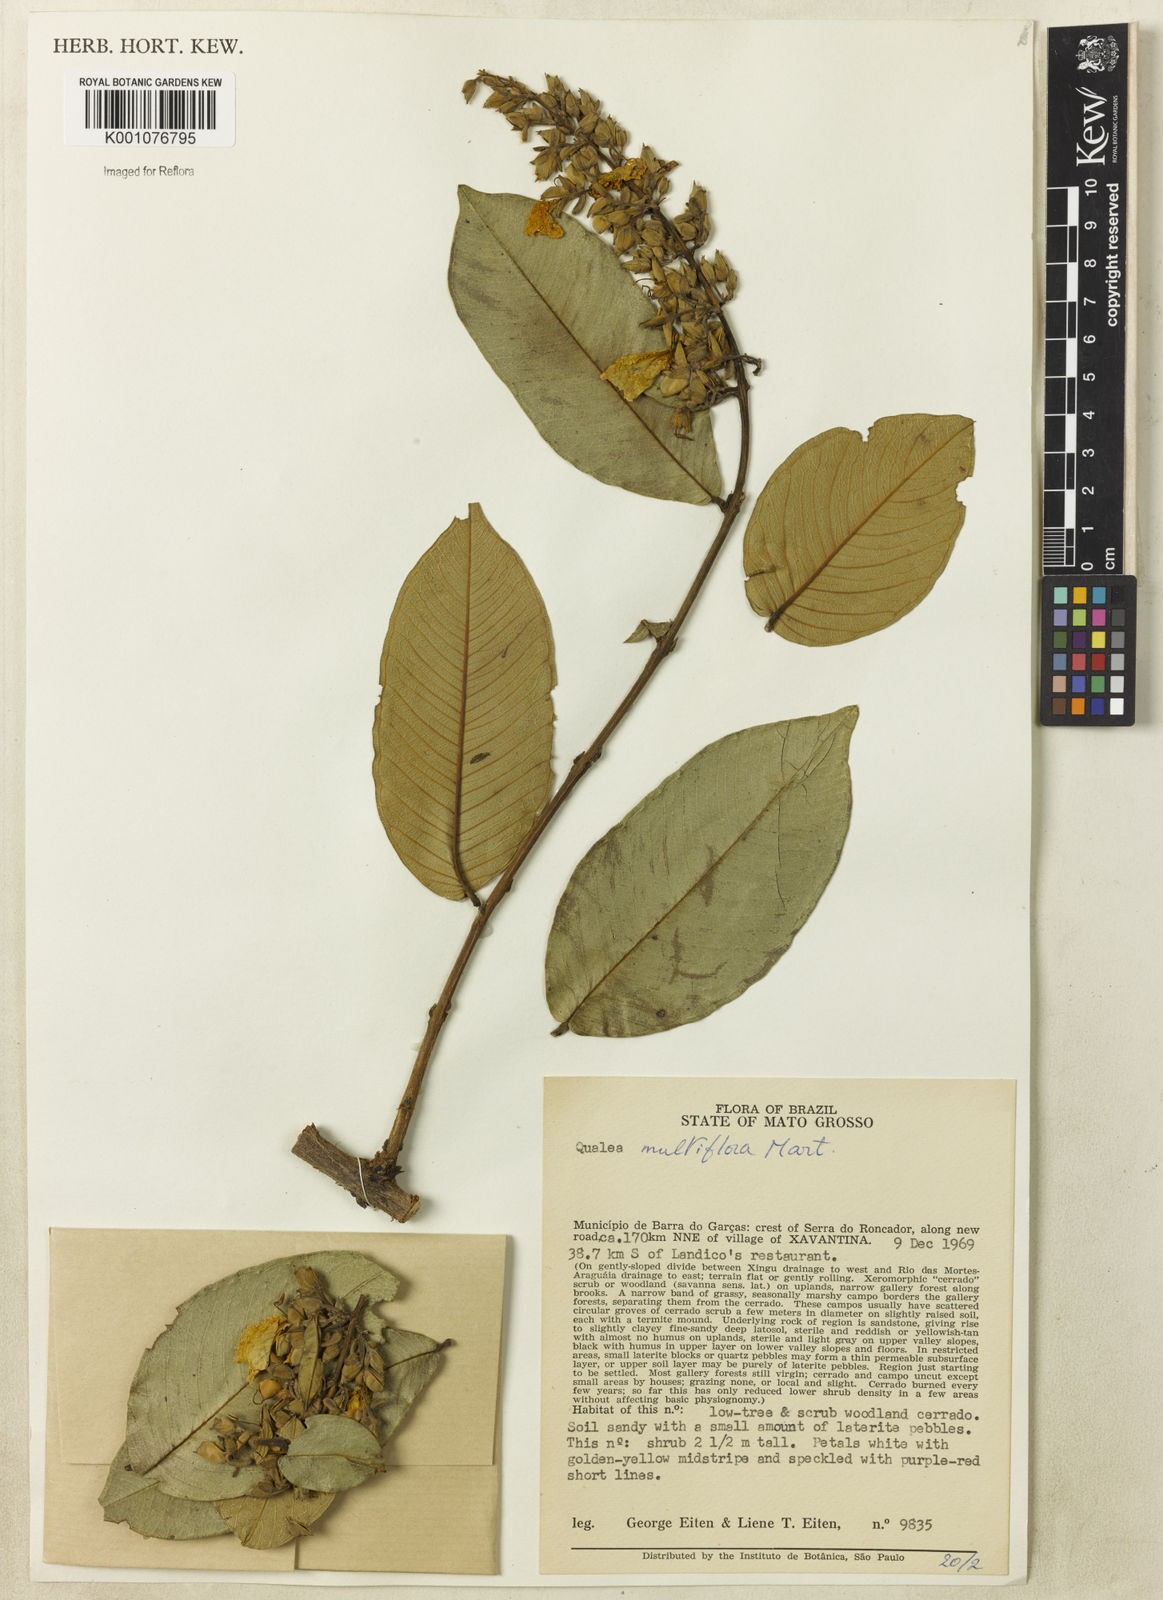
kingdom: Plantae
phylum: Tracheophyta
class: Magnoliopsida
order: Myrtales
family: Vochysiaceae
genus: Qualea
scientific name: Qualea multiflora
